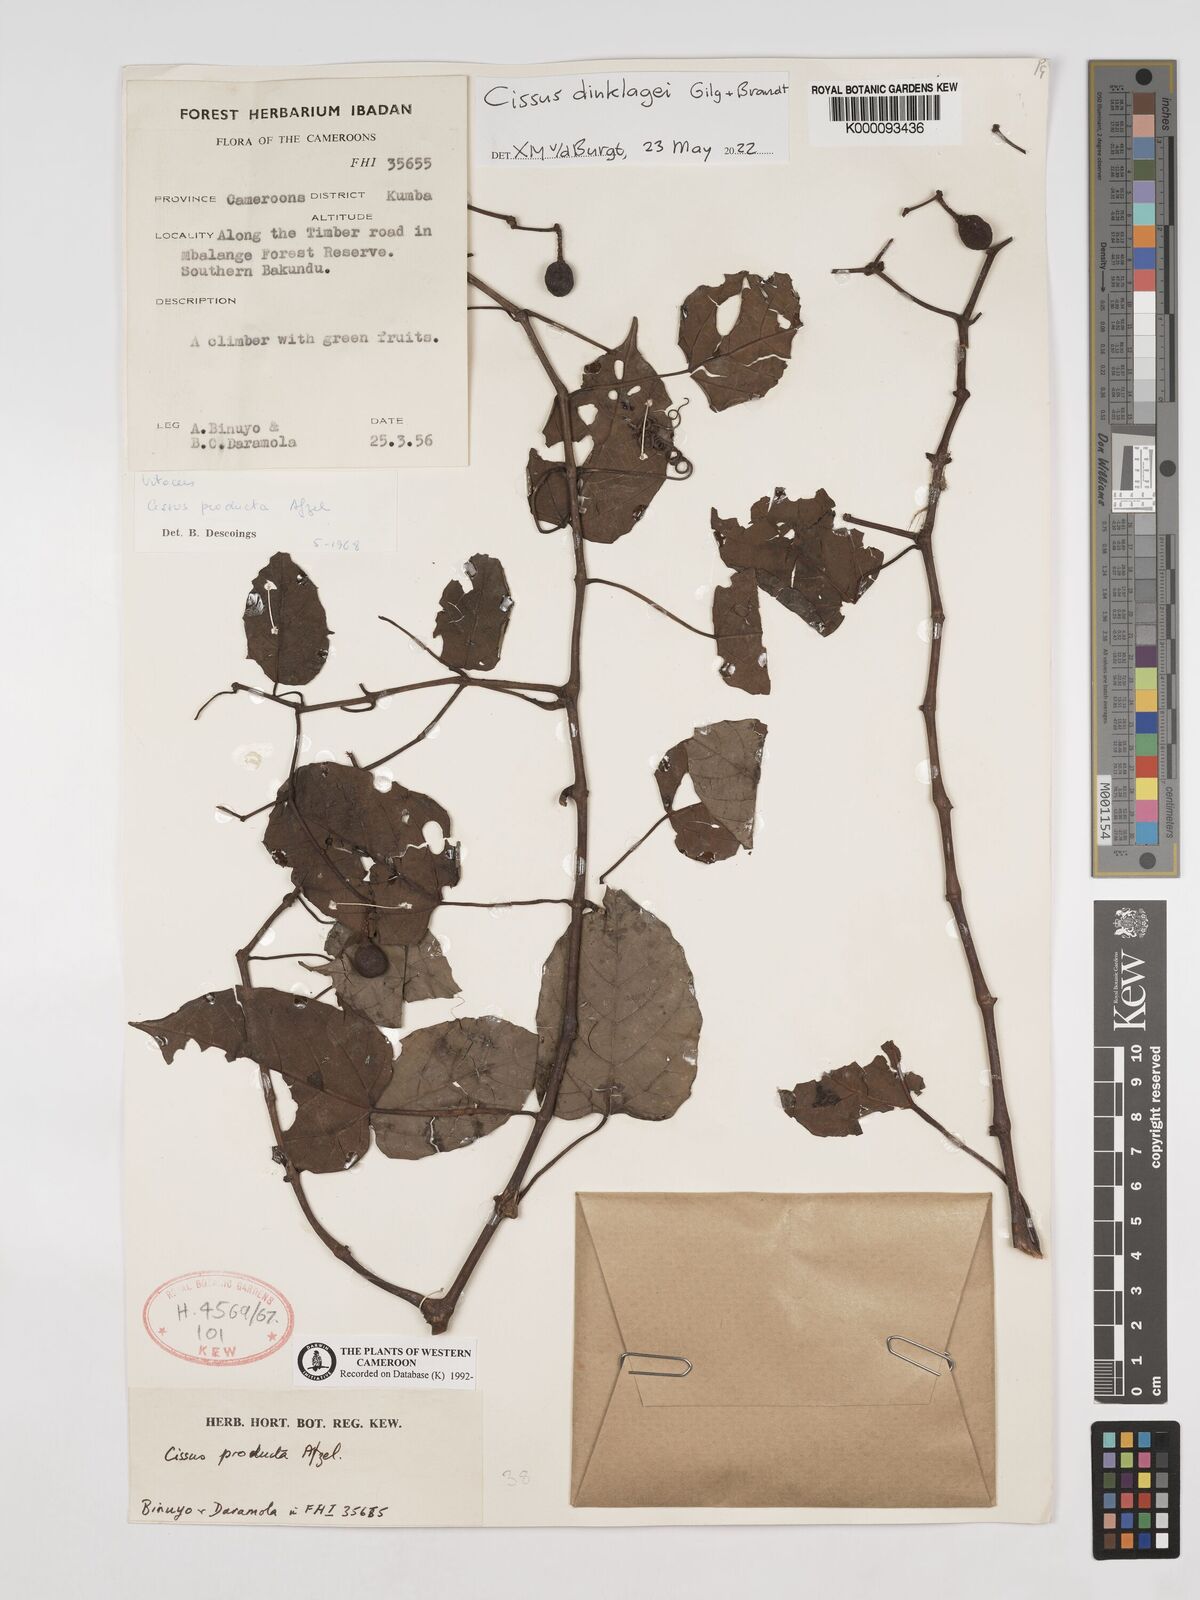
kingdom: Plantae
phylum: Tracheophyta
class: Magnoliopsida
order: Vitales
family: Vitaceae
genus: Cissus
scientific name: Cissus producta
